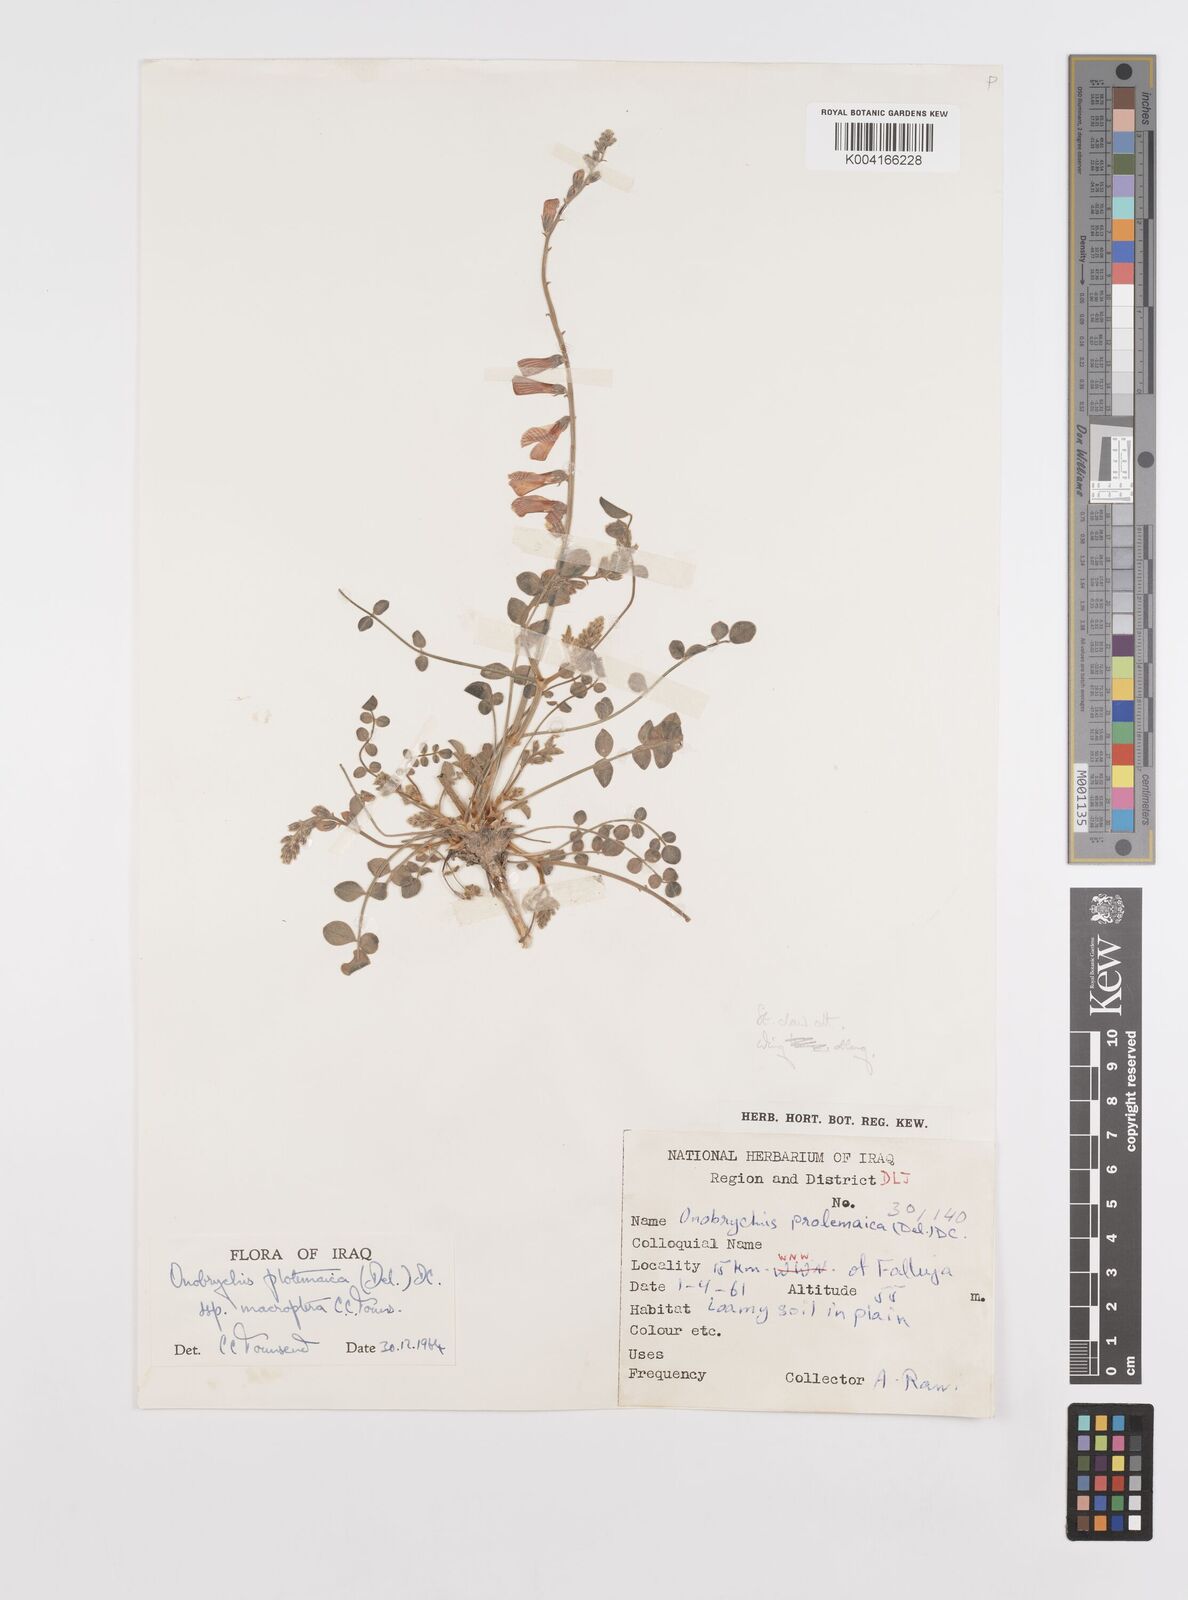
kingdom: Plantae
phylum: Tracheophyta
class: Magnoliopsida
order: Fabales
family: Fabaceae
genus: Onobrychis
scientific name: Onobrychis ptolemaica
